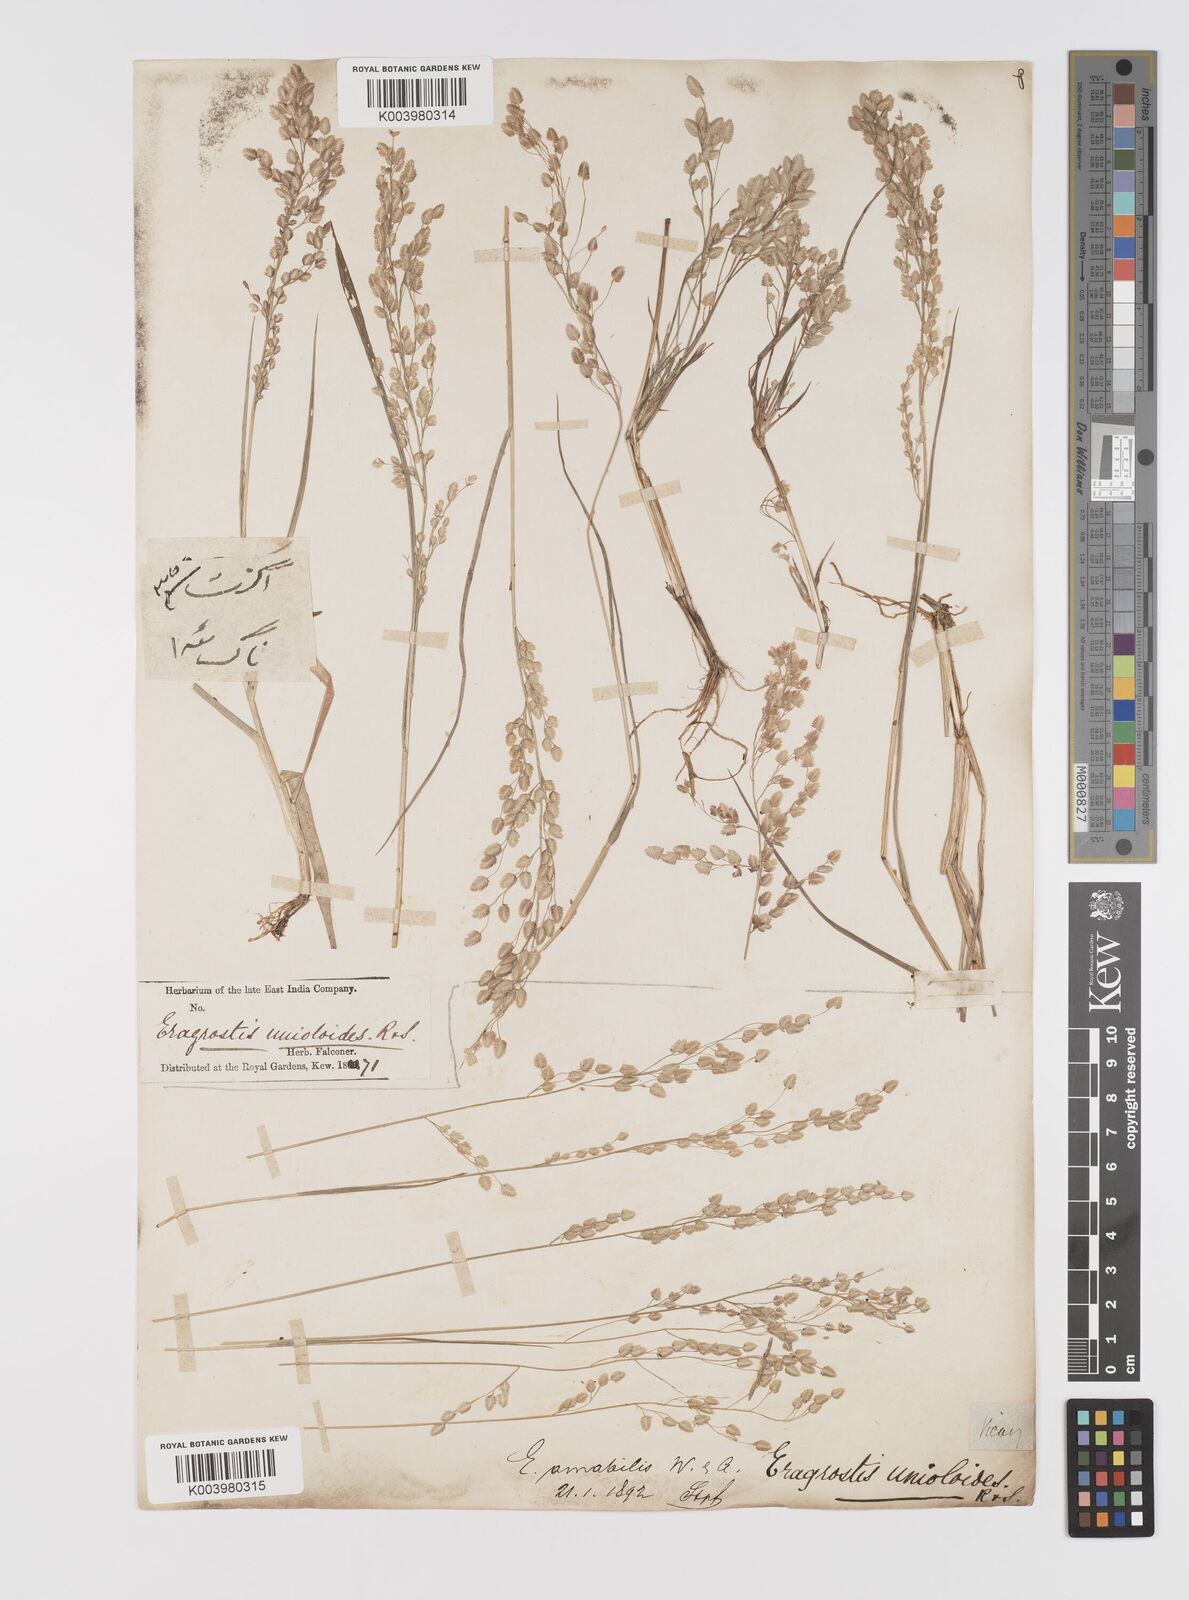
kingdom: Plantae
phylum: Tracheophyta
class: Liliopsida
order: Poales
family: Poaceae
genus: Eragrostis
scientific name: Eragrostis unioloides
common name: Chinese lovegrass
